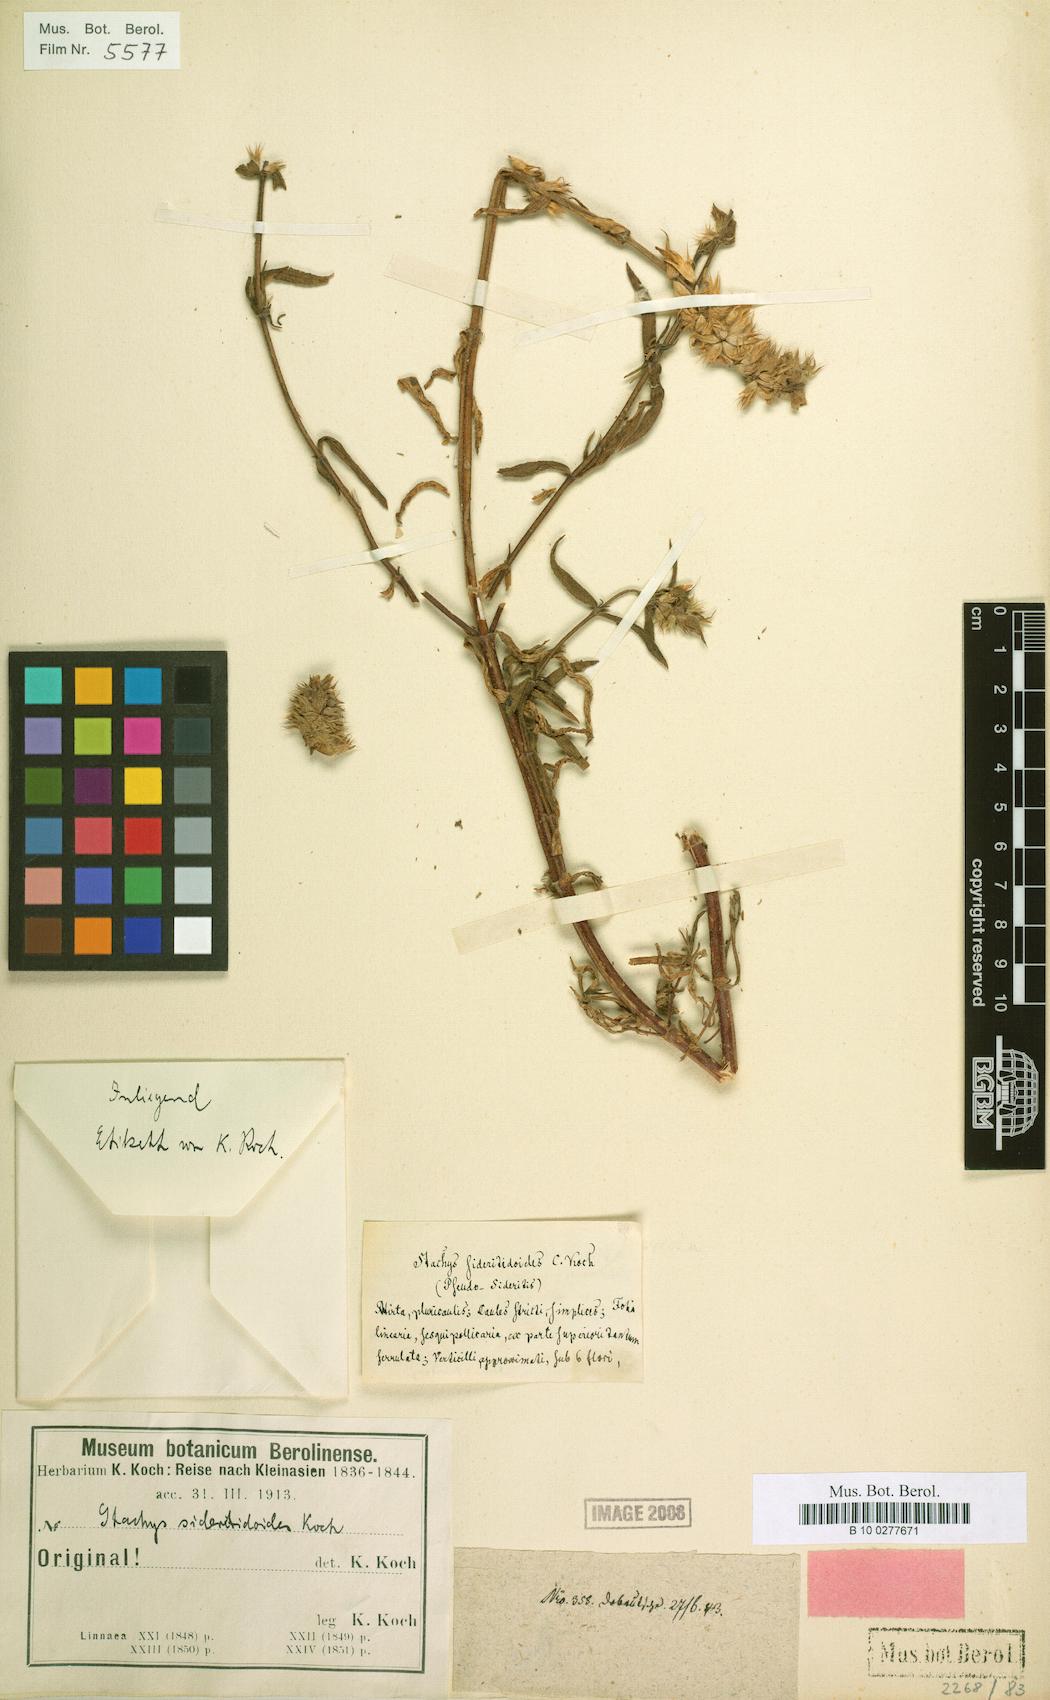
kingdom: Plantae
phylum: Tracheophyta
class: Magnoliopsida
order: Lamiales
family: Lamiaceae
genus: Stachys
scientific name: Stachys atherocalyx
